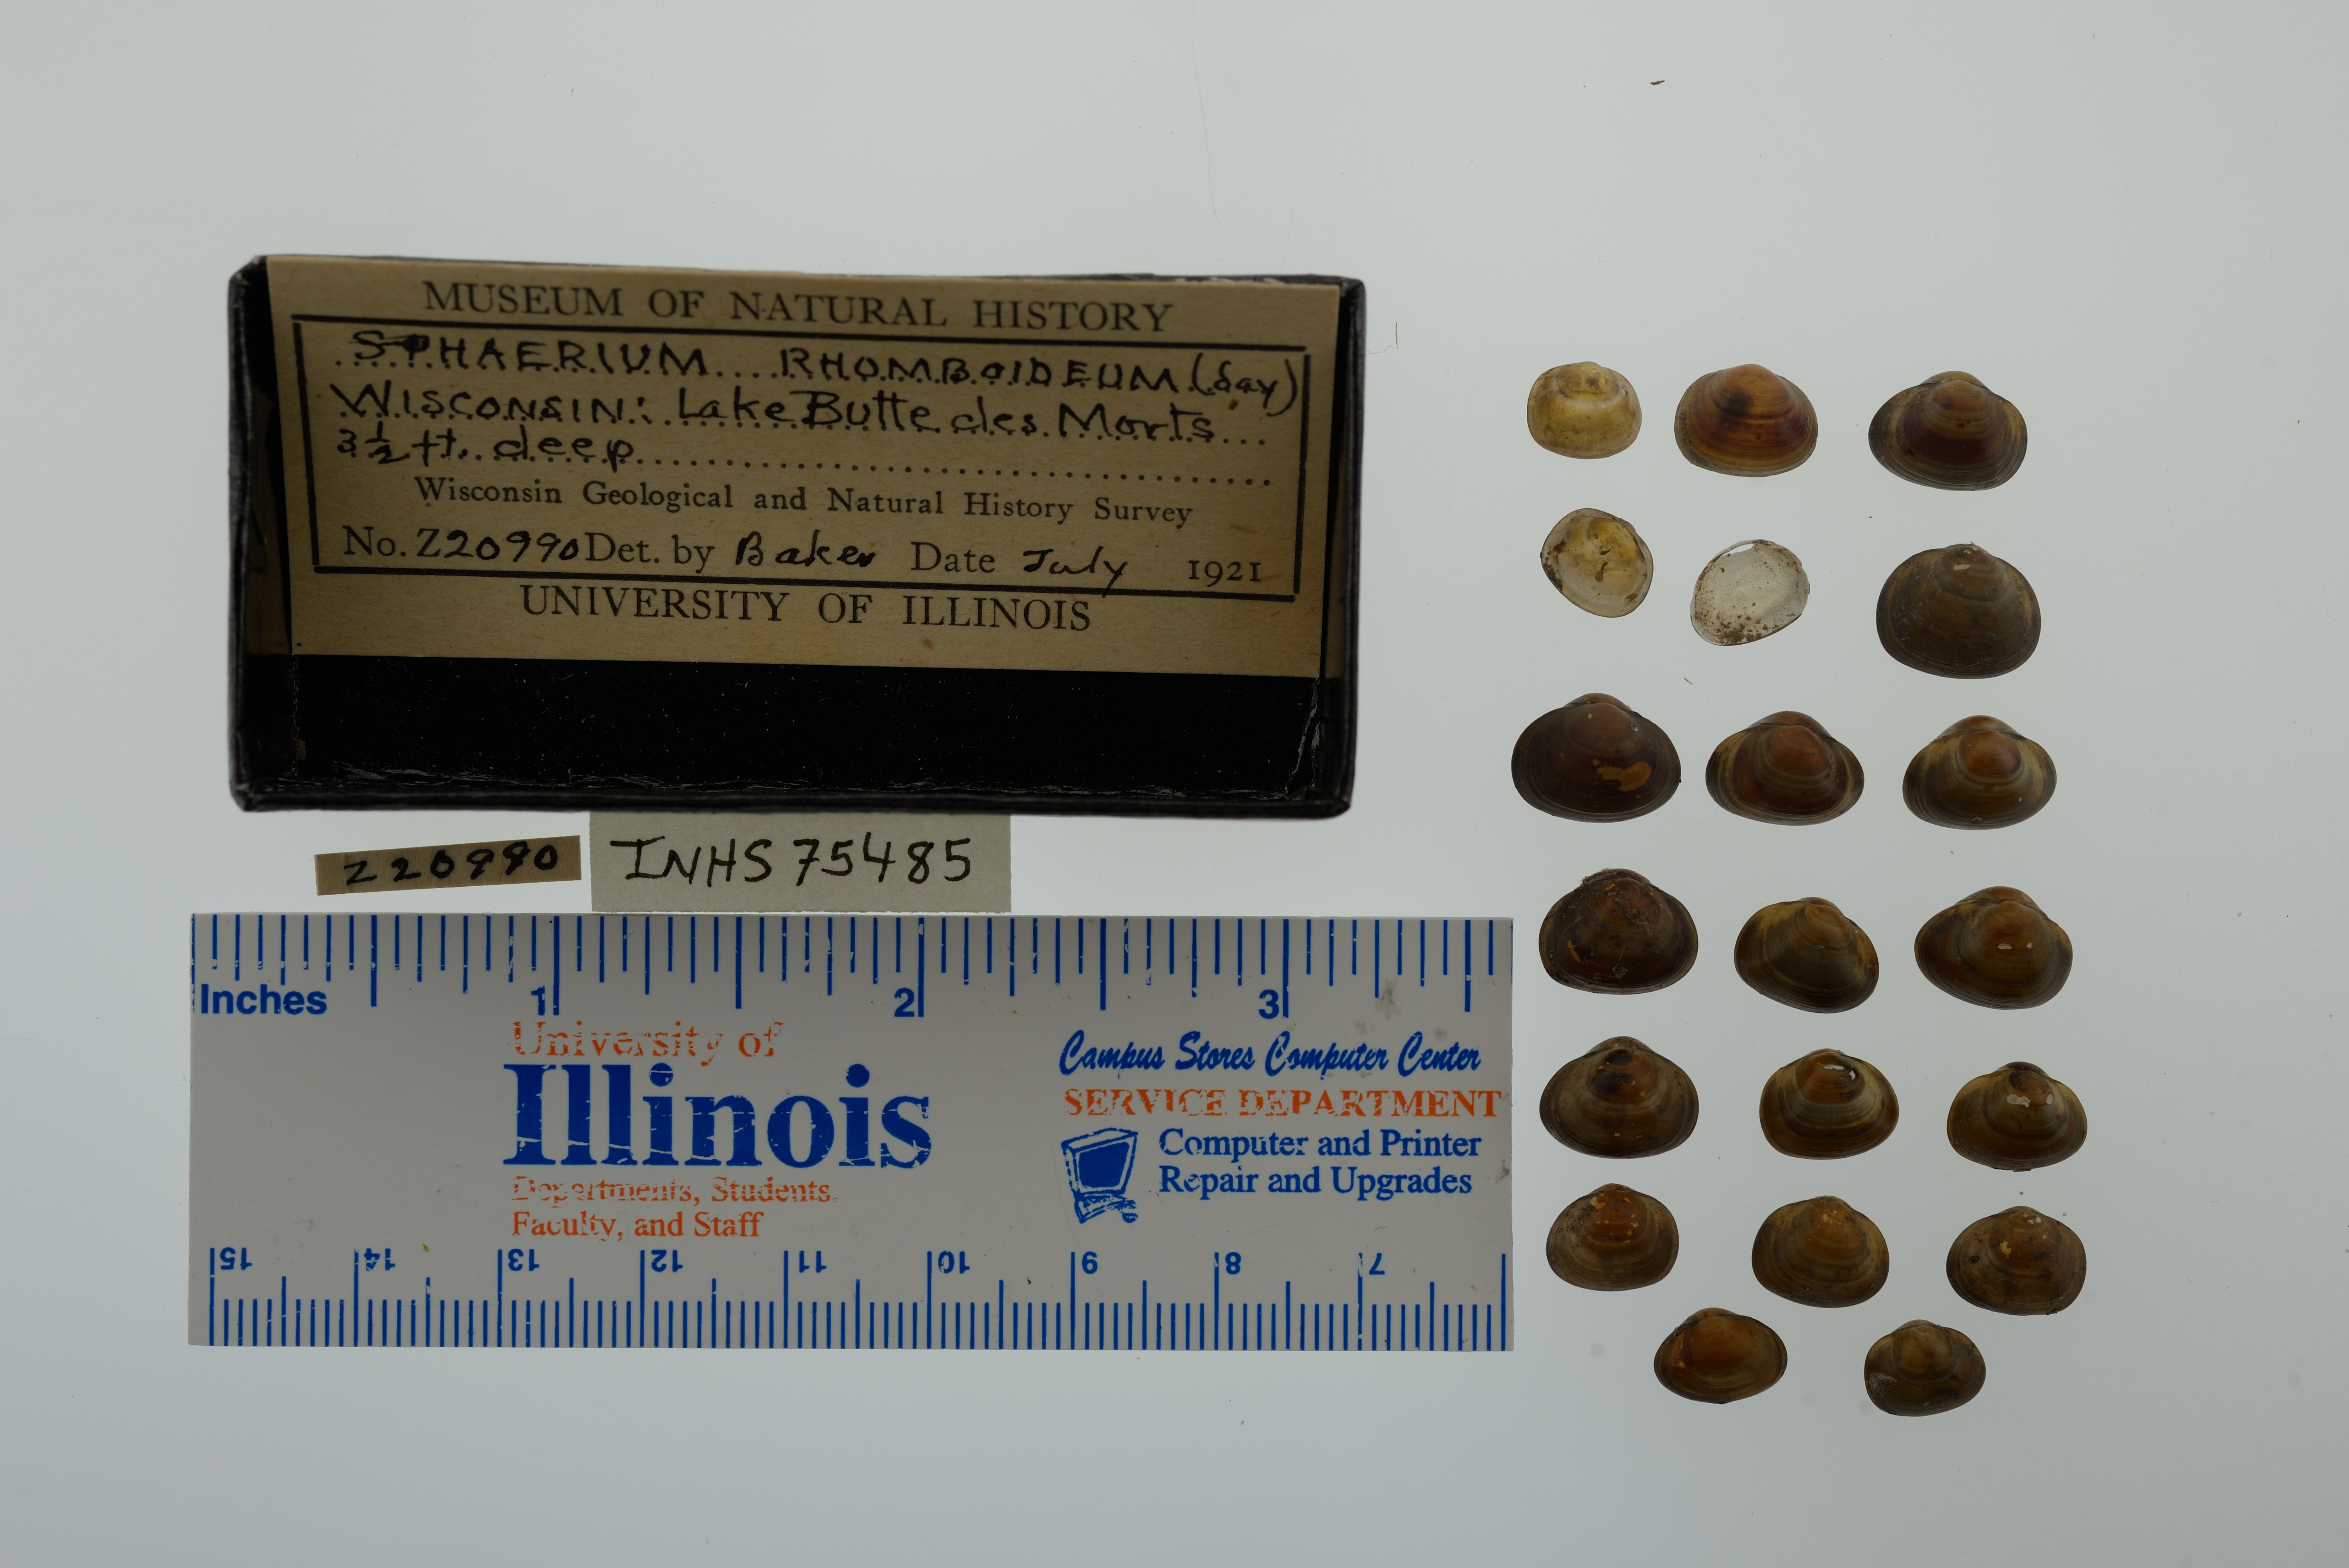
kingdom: Animalia
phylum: Mollusca
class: Bivalvia
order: Sphaeriida
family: Sphaeriidae
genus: Sphaerium
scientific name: Sphaerium rhomboideum
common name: Rhomboid fingernailclam
